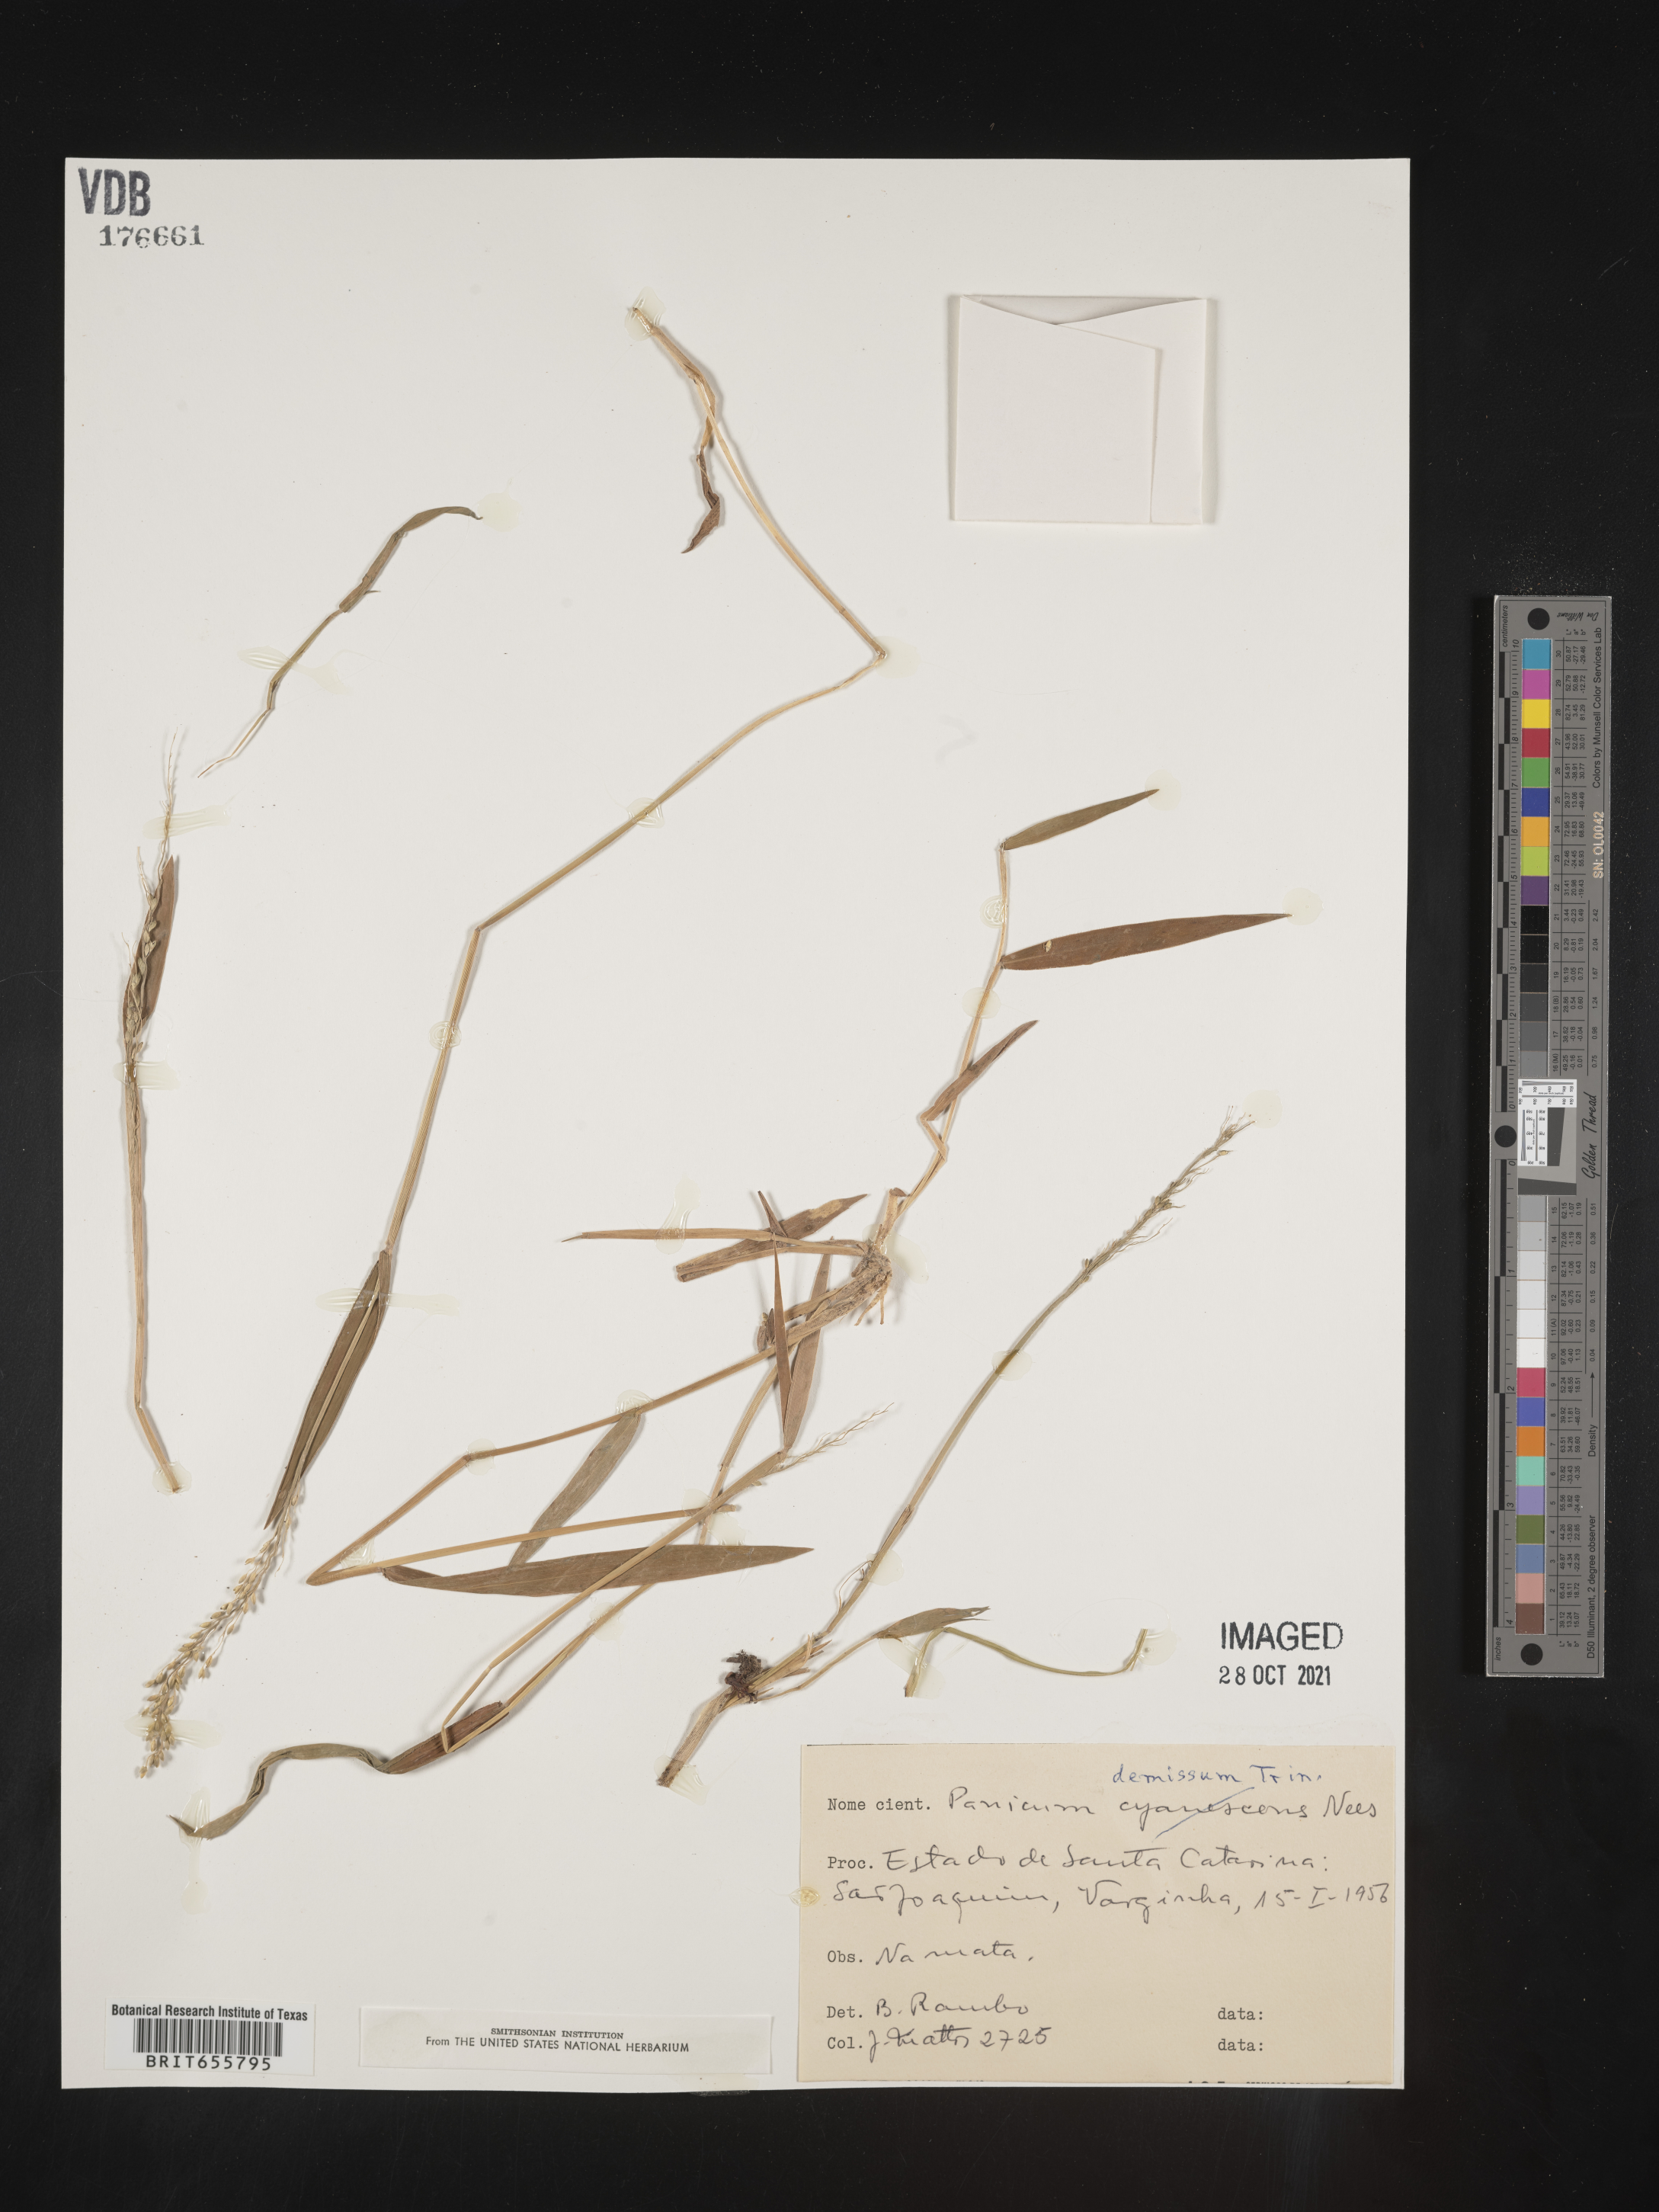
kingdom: Plantae
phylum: Tracheophyta
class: Liliopsida
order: Poales
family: Poaceae
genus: Panicum
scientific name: Panicum
